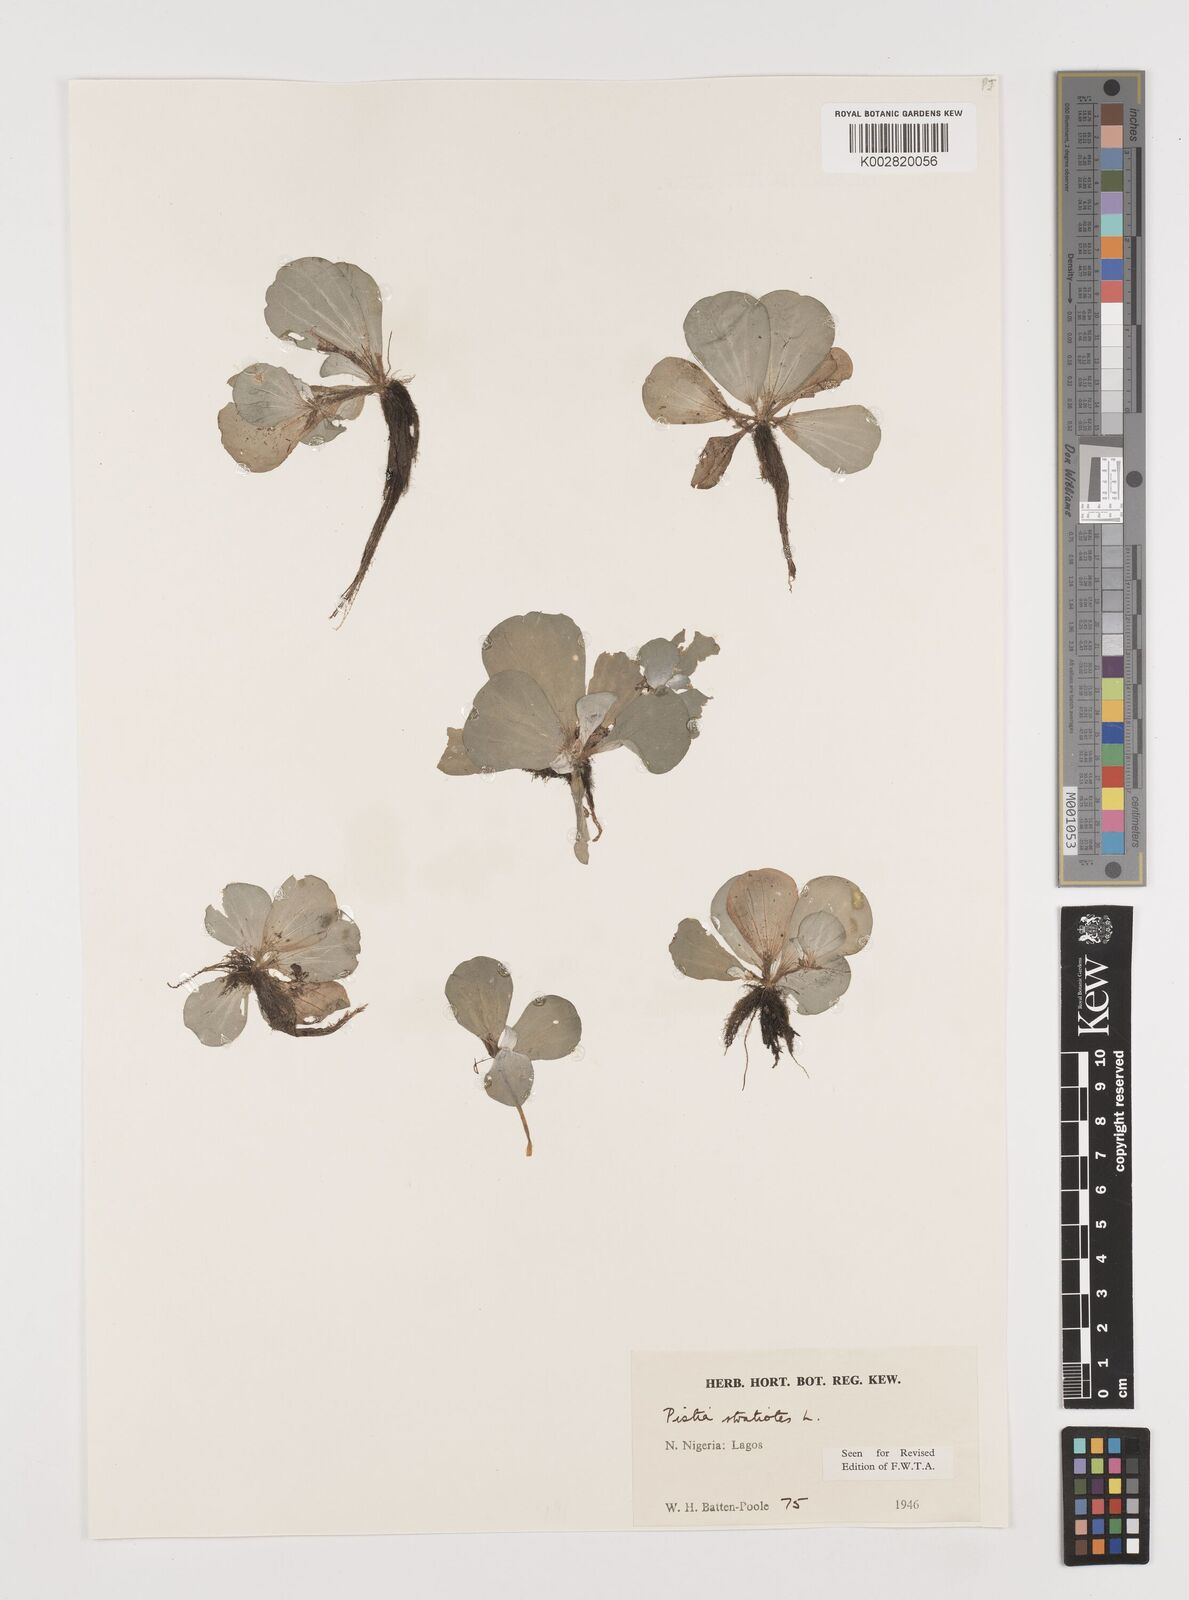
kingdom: Plantae
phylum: Tracheophyta
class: Liliopsida
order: Alismatales
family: Araceae
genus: Pistia
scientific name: Pistia stratiotes
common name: Water lettuce
